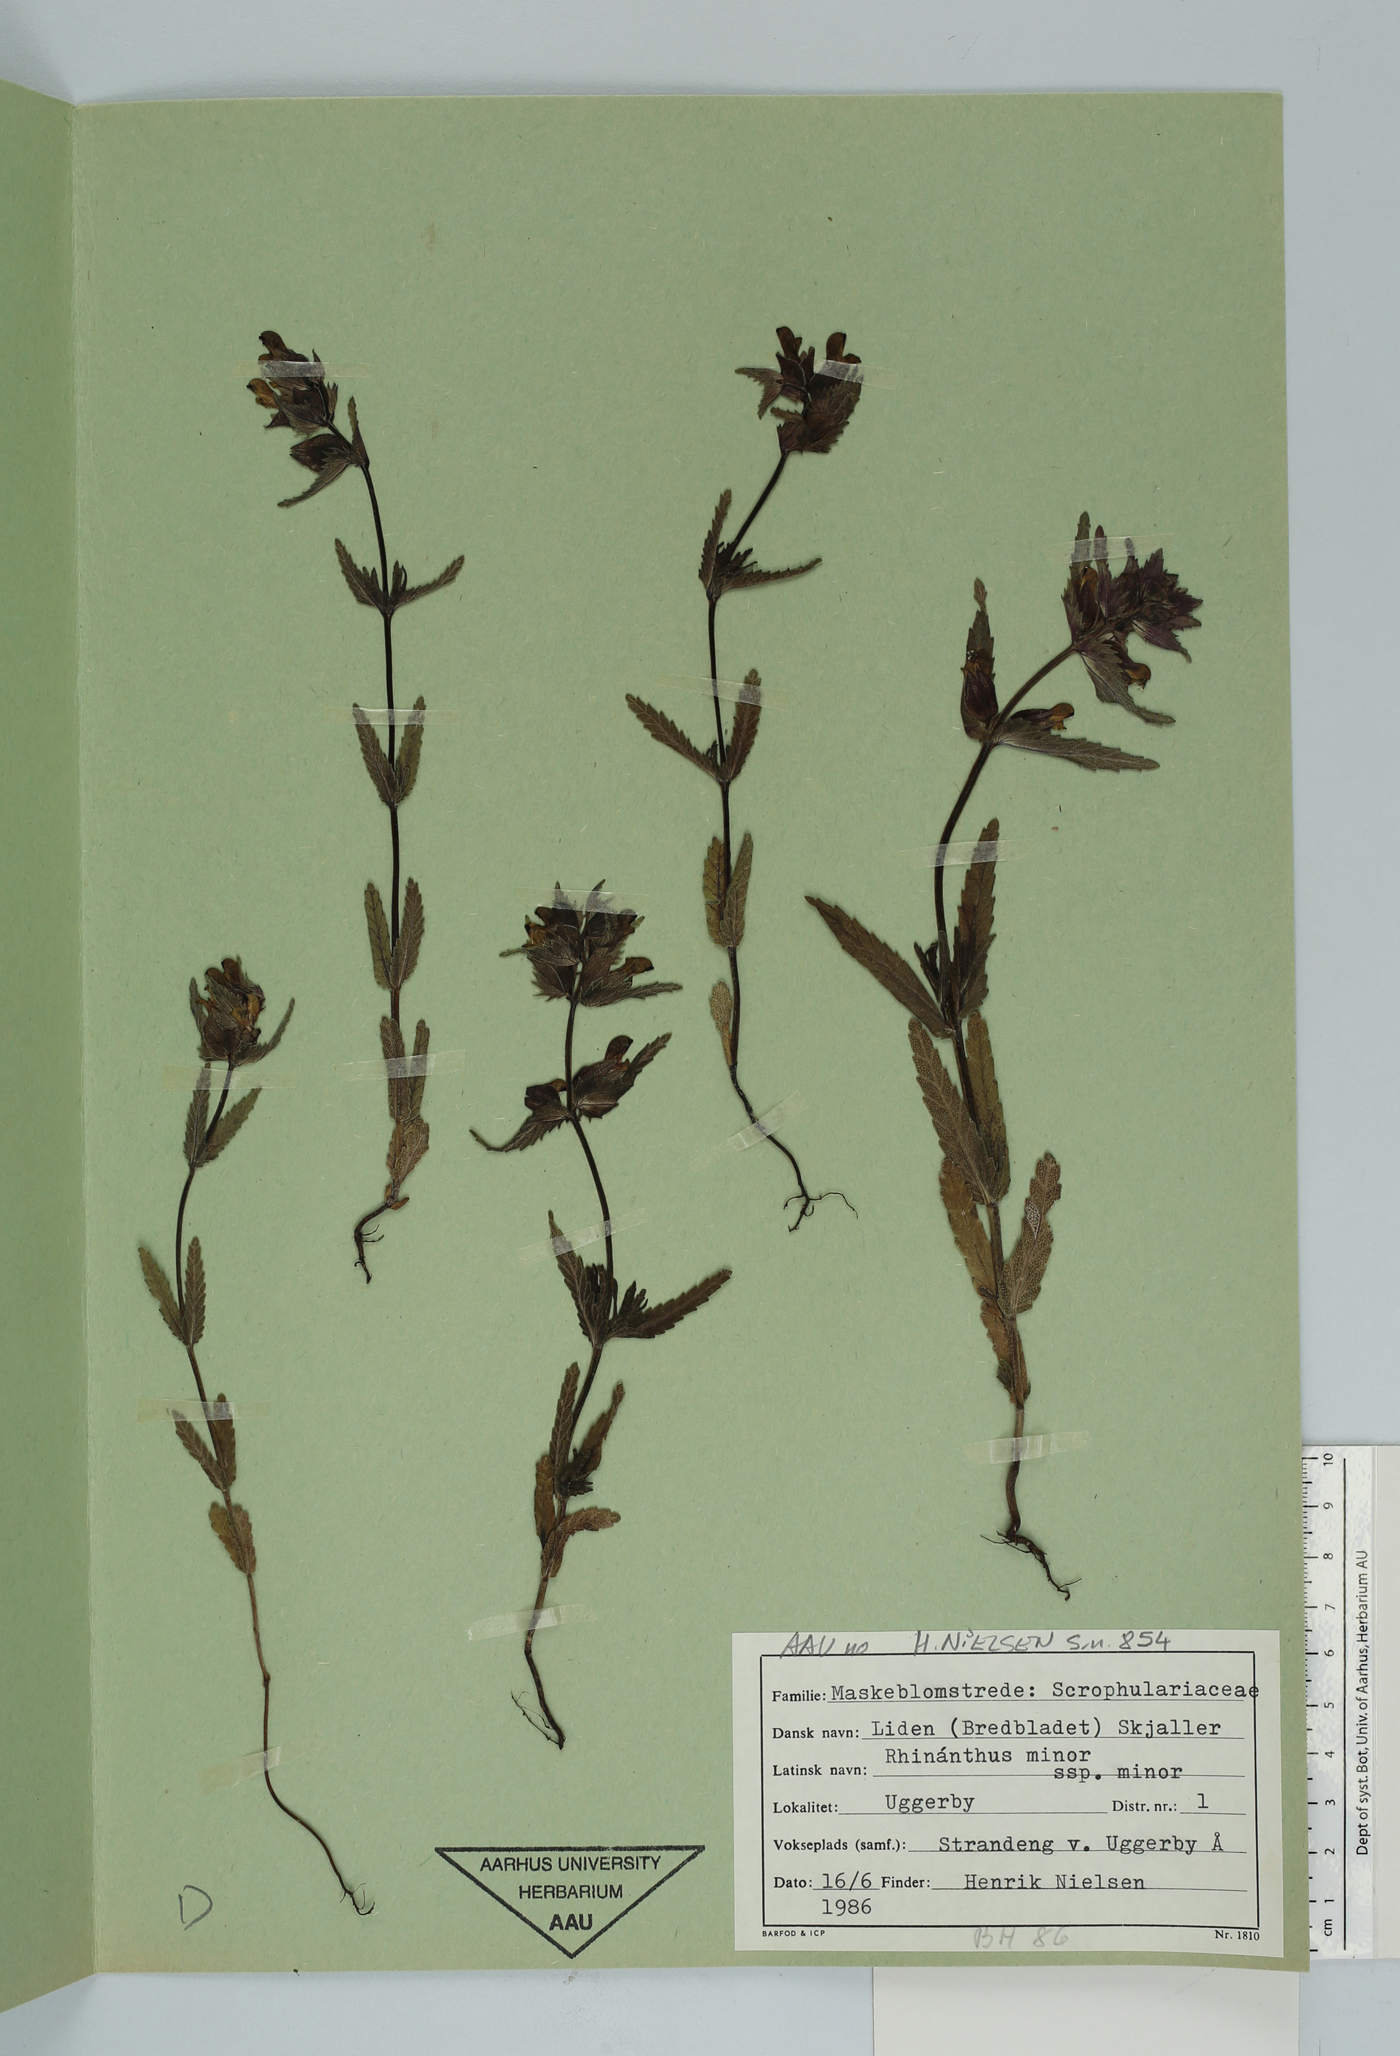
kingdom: Plantae
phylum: Tracheophyta
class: Magnoliopsida
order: Lamiales
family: Orobanchaceae
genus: Rhinanthus
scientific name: Rhinanthus minor
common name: Yellow-rattle
